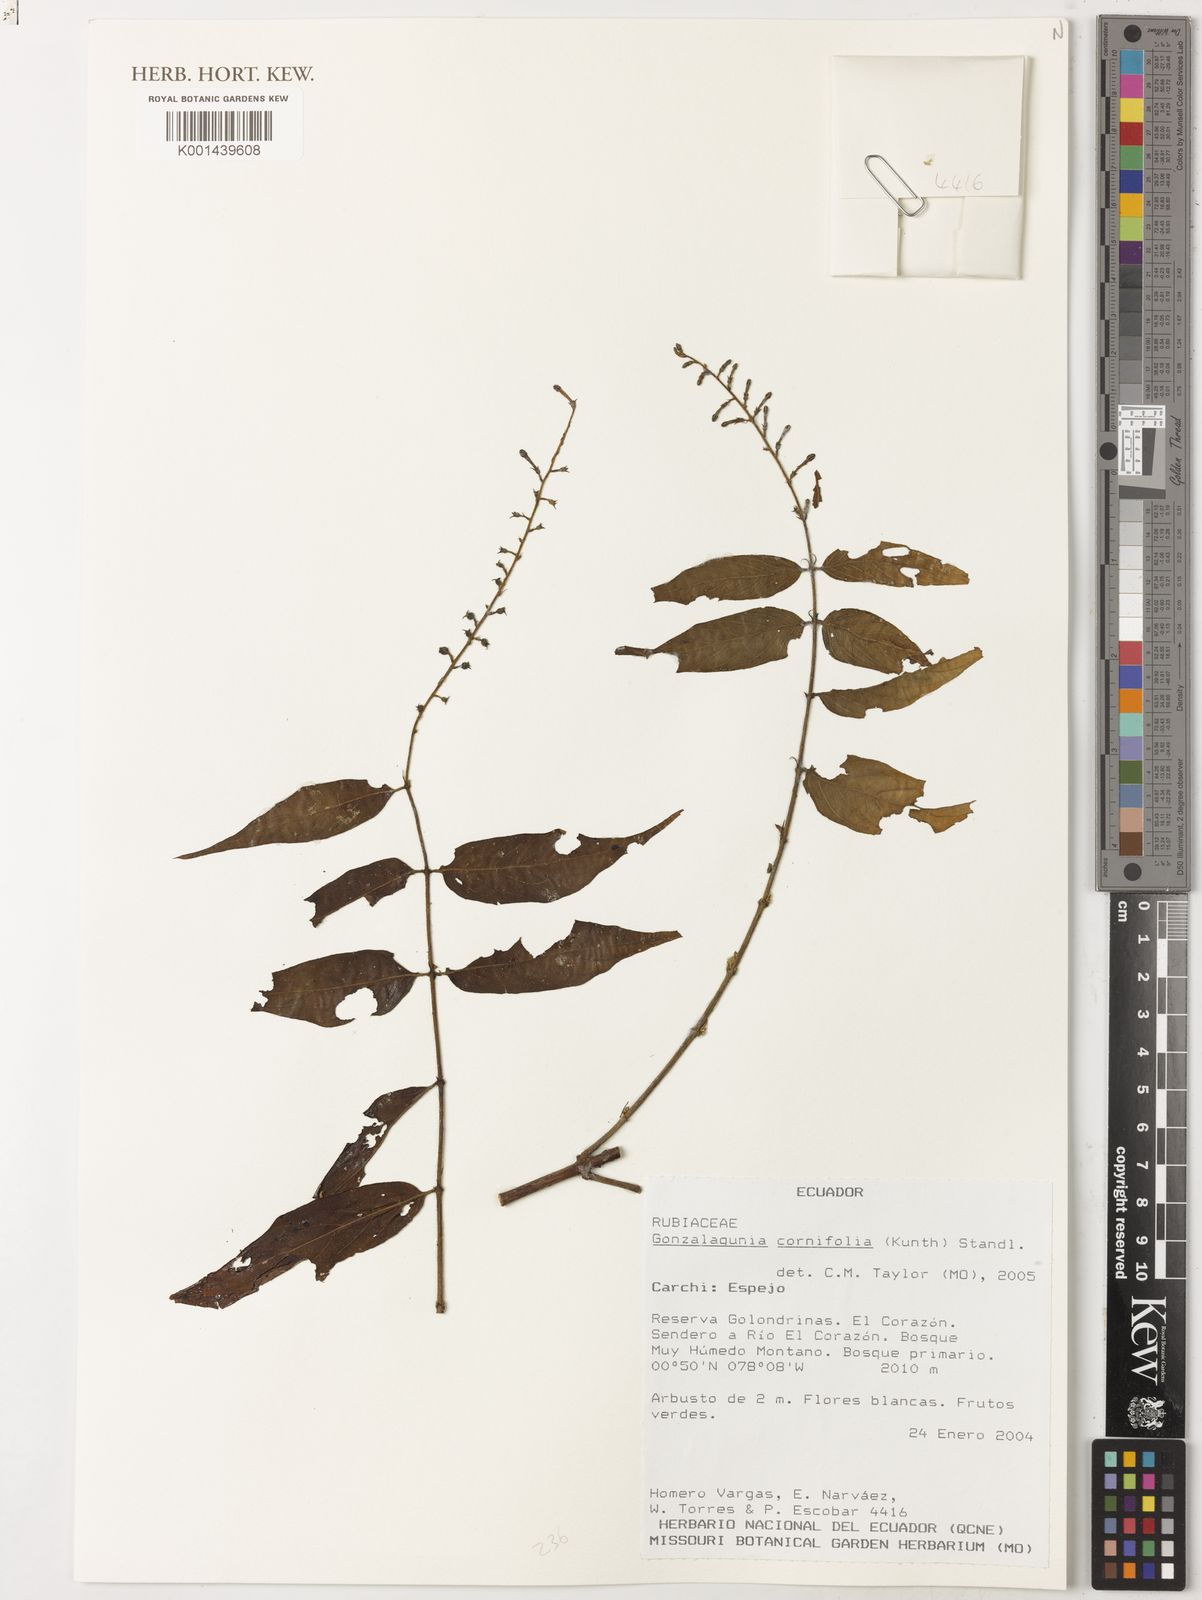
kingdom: Plantae
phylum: Tracheophyta
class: Magnoliopsida
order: Gentianales
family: Rubiaceae
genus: Gonzalagunia
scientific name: Gonzalagunia cornifolia
